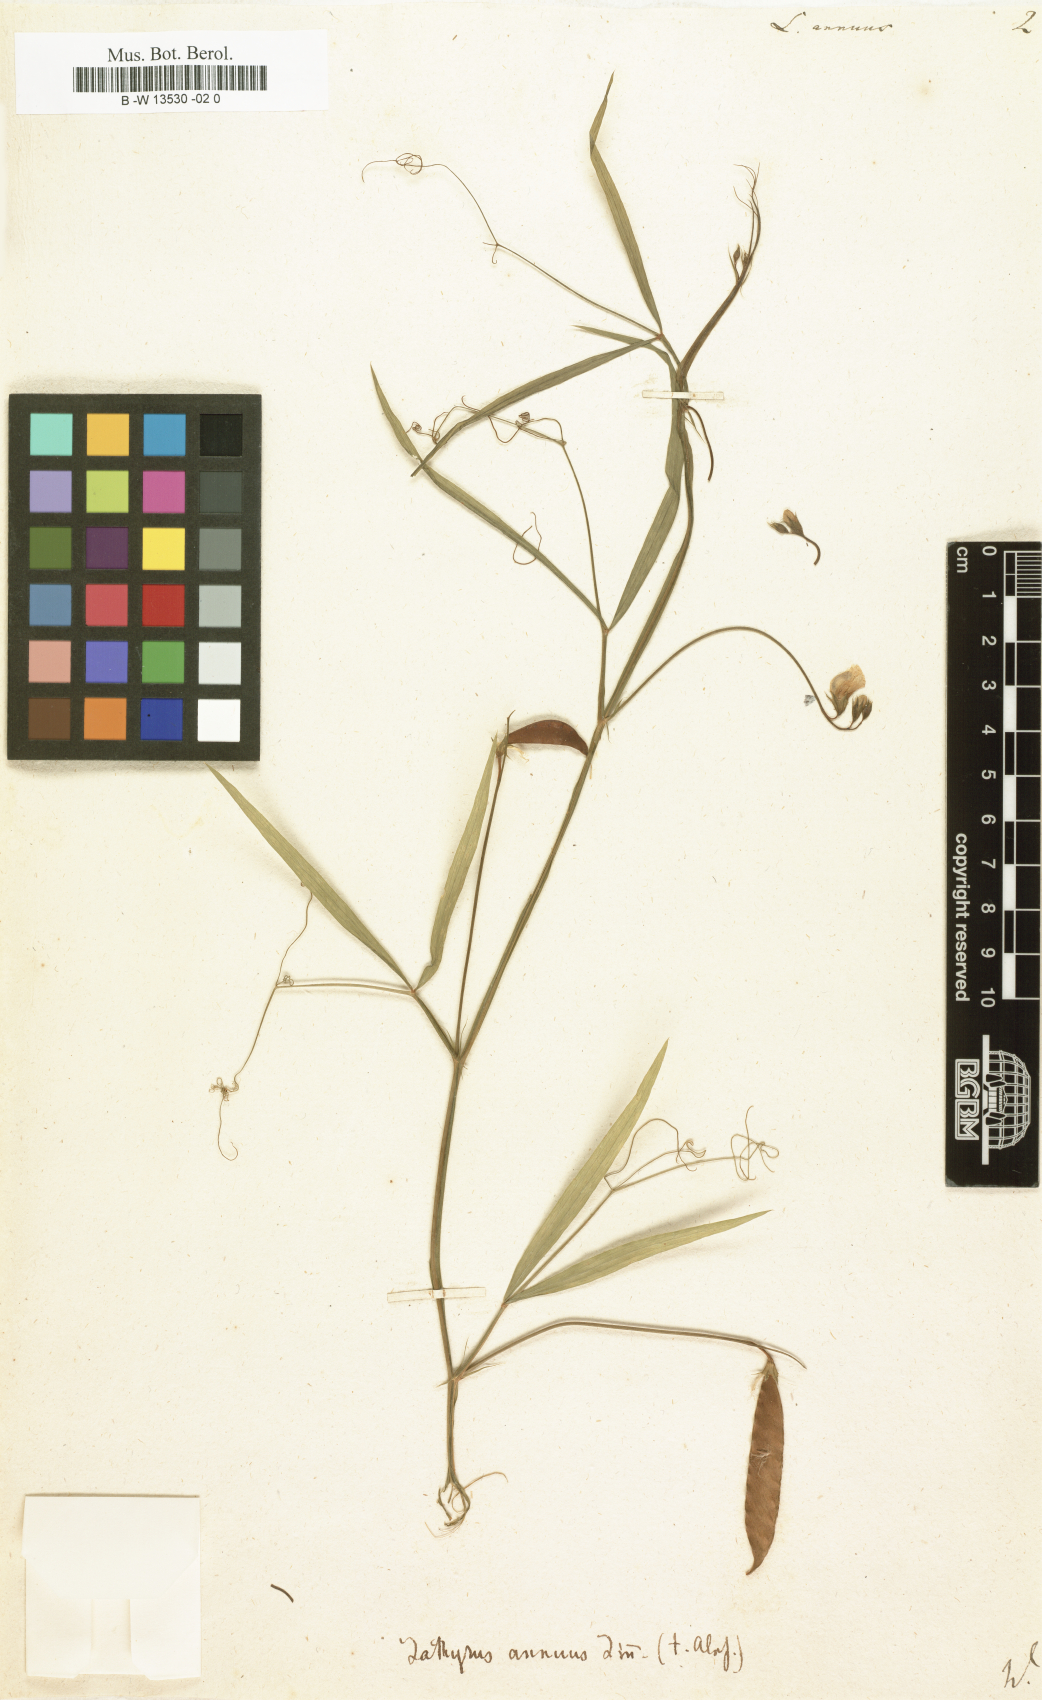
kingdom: Plantae
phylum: Tracheophyta
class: Magnoliopsida
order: Fabales
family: Fabaceae
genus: Lathyrus
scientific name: Lathyrus annuus
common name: Fodder pea
